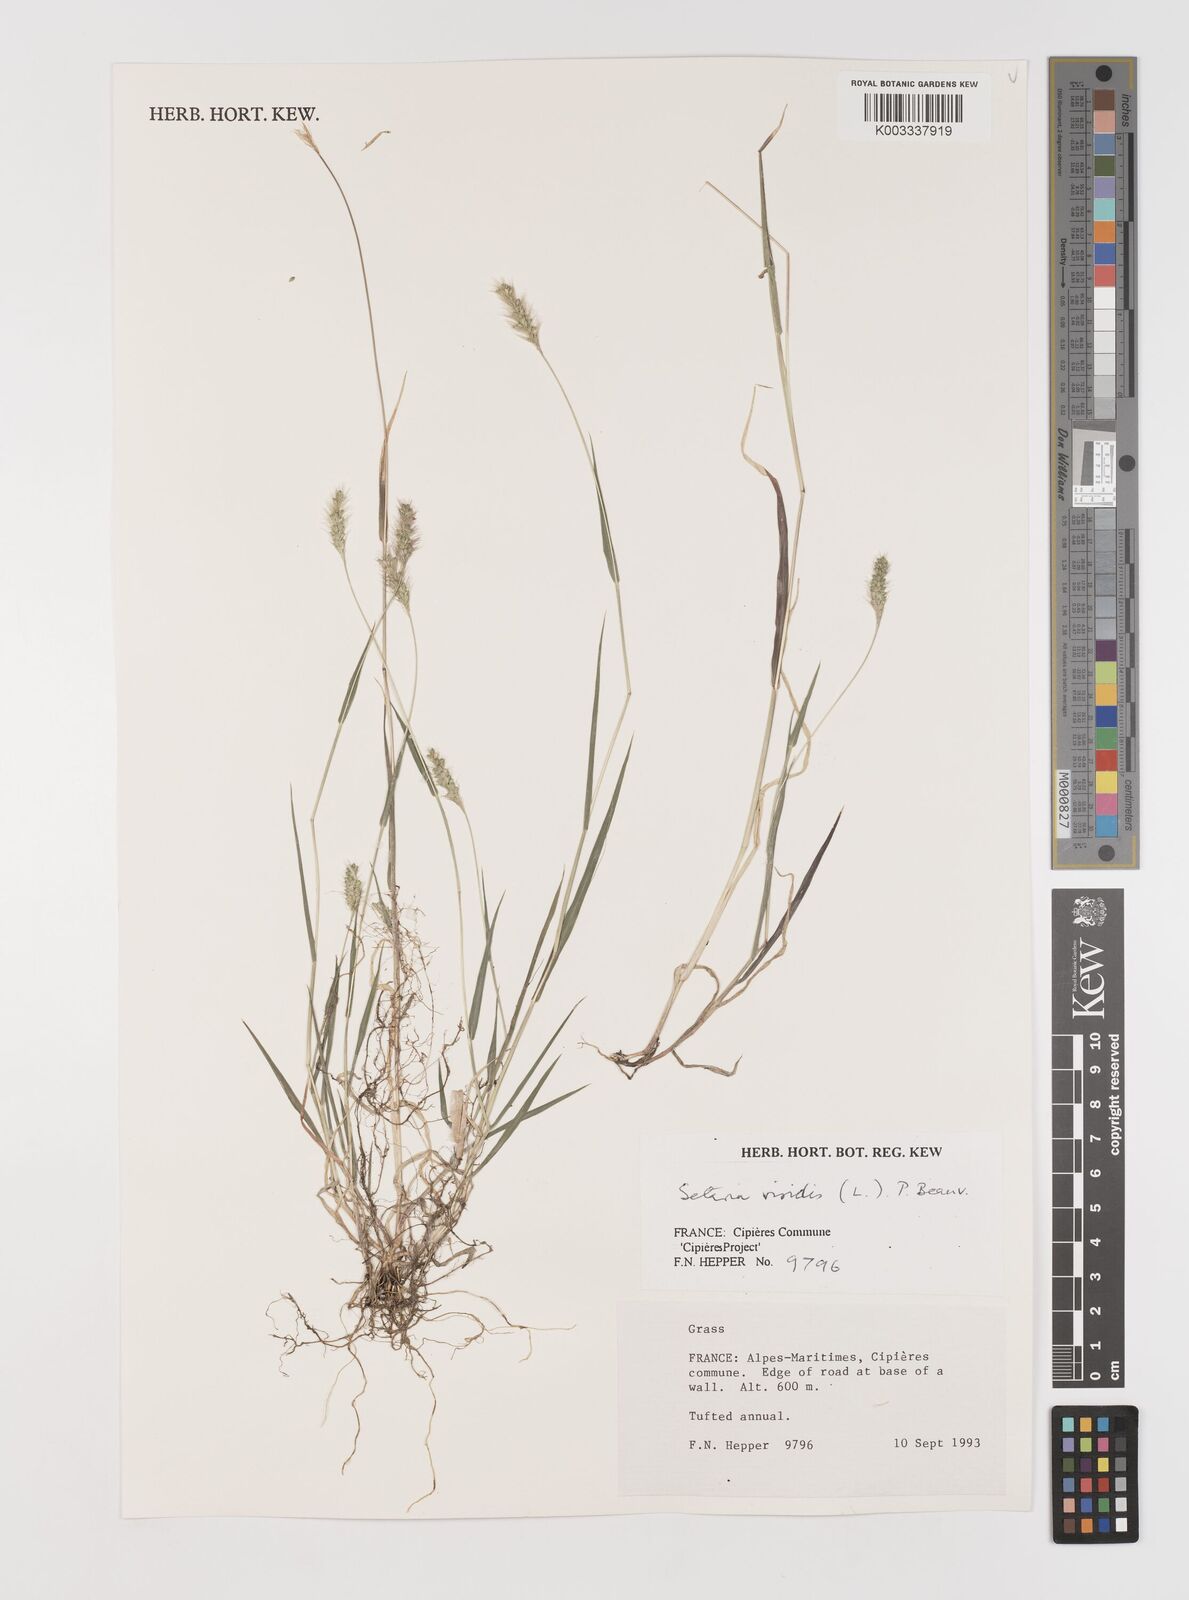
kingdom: Plantae
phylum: Tracheophyta
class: Liliopsida
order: Poales
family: Poaceae
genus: Setaria
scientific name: Setaria viridis
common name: Green bristlegrass
